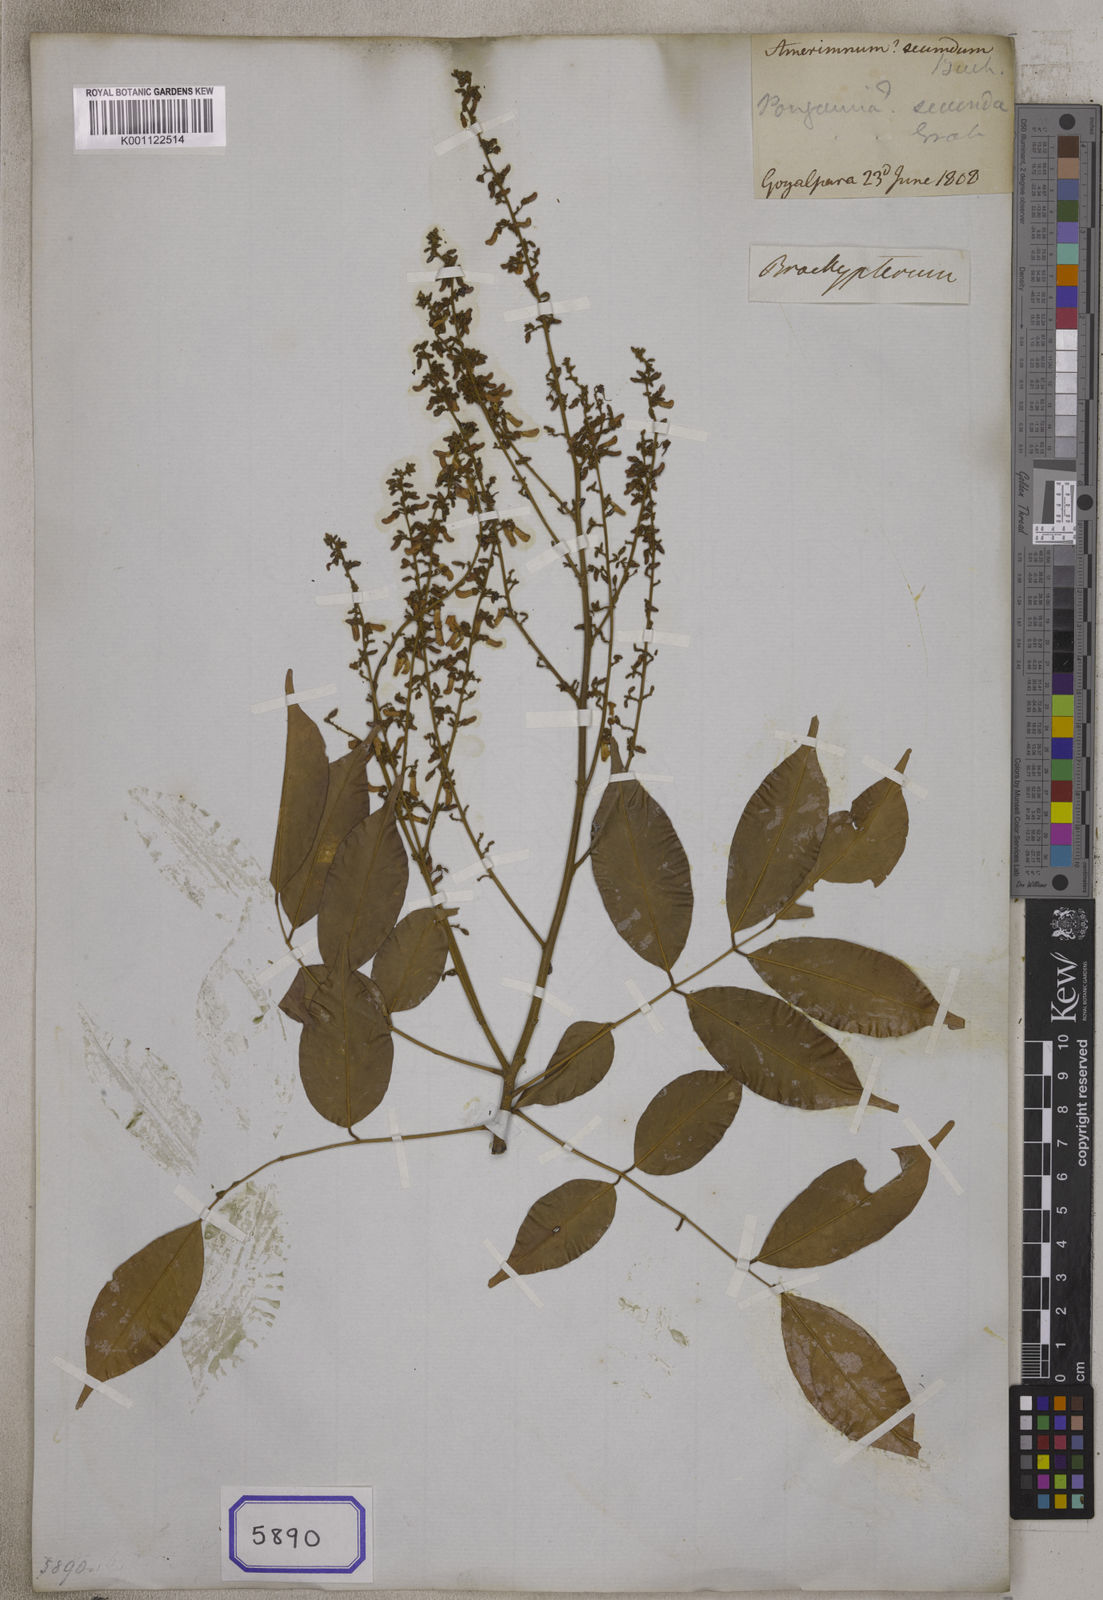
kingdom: Plantae
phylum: Tracheophyta
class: Magnoliopsida
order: Fabales
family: Fabaceae
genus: Derris
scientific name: Derris secunda
